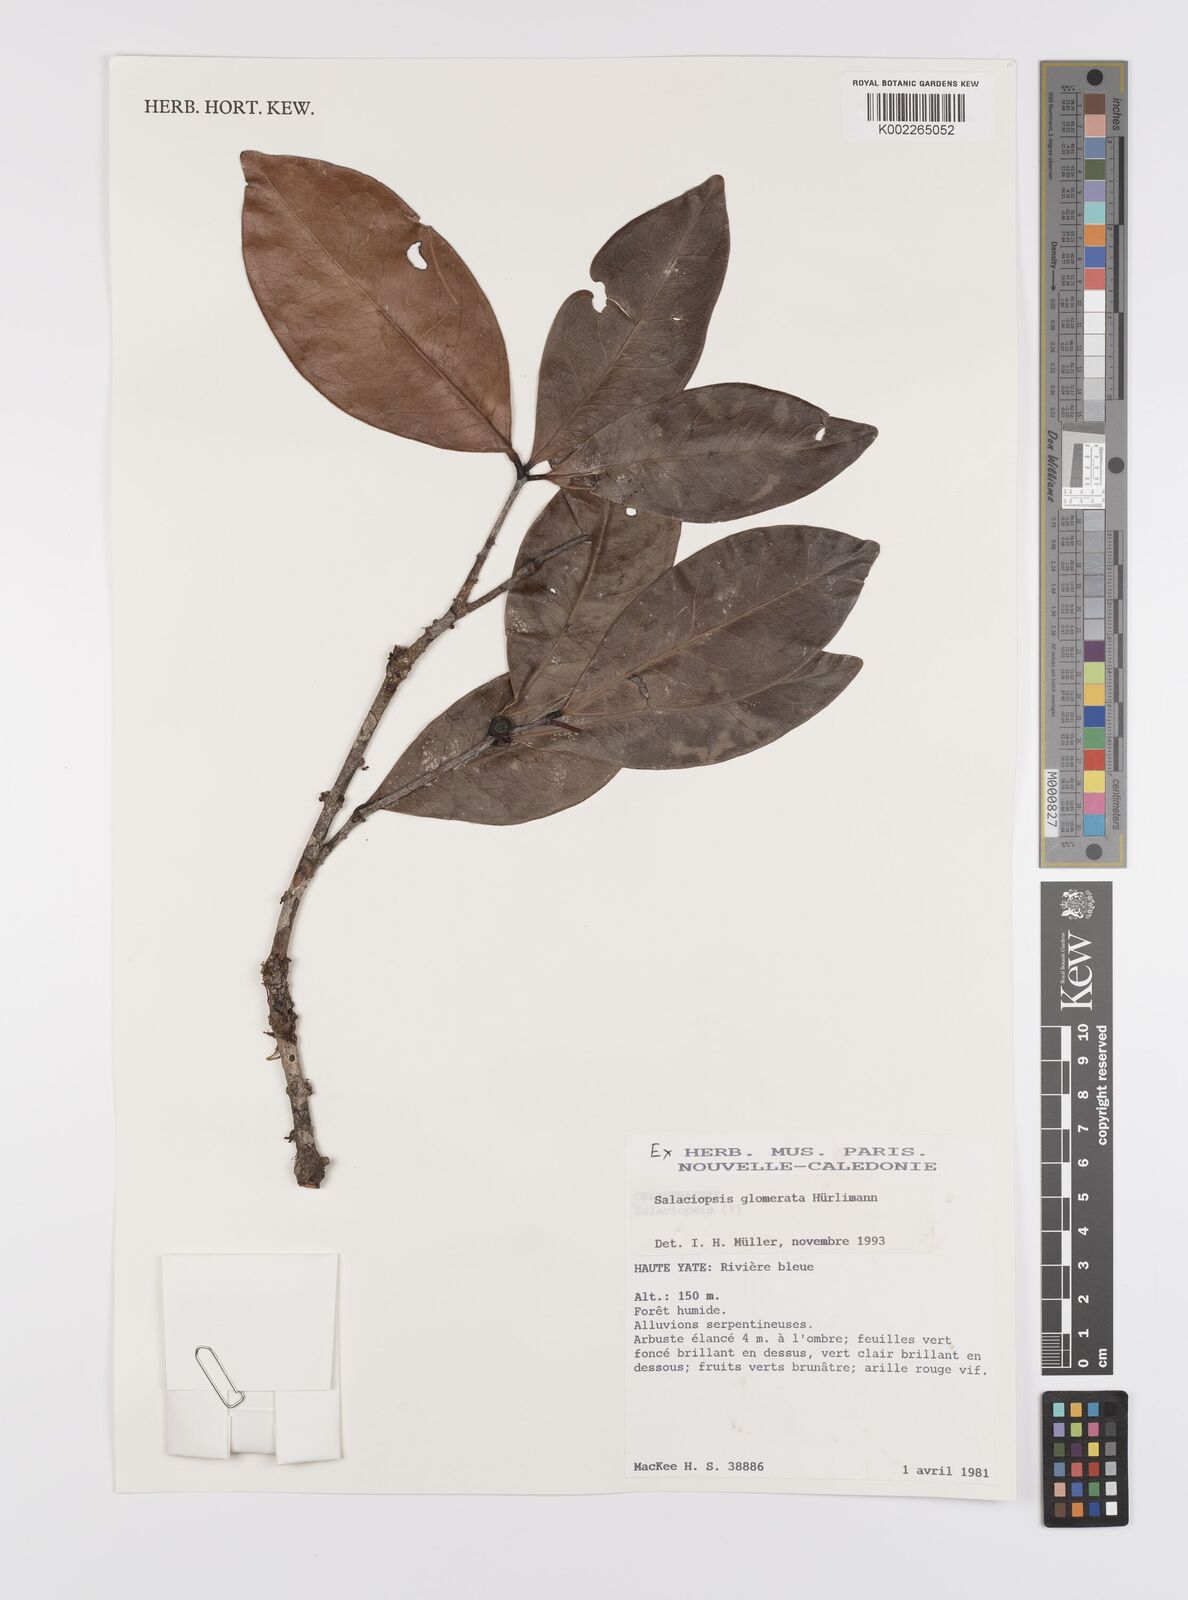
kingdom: Plantae
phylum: Tracheophyta
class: Magnoliopsida
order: Celastrales
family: Celastraceae
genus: Salaciopsis
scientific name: Salaciopsis glomerata
